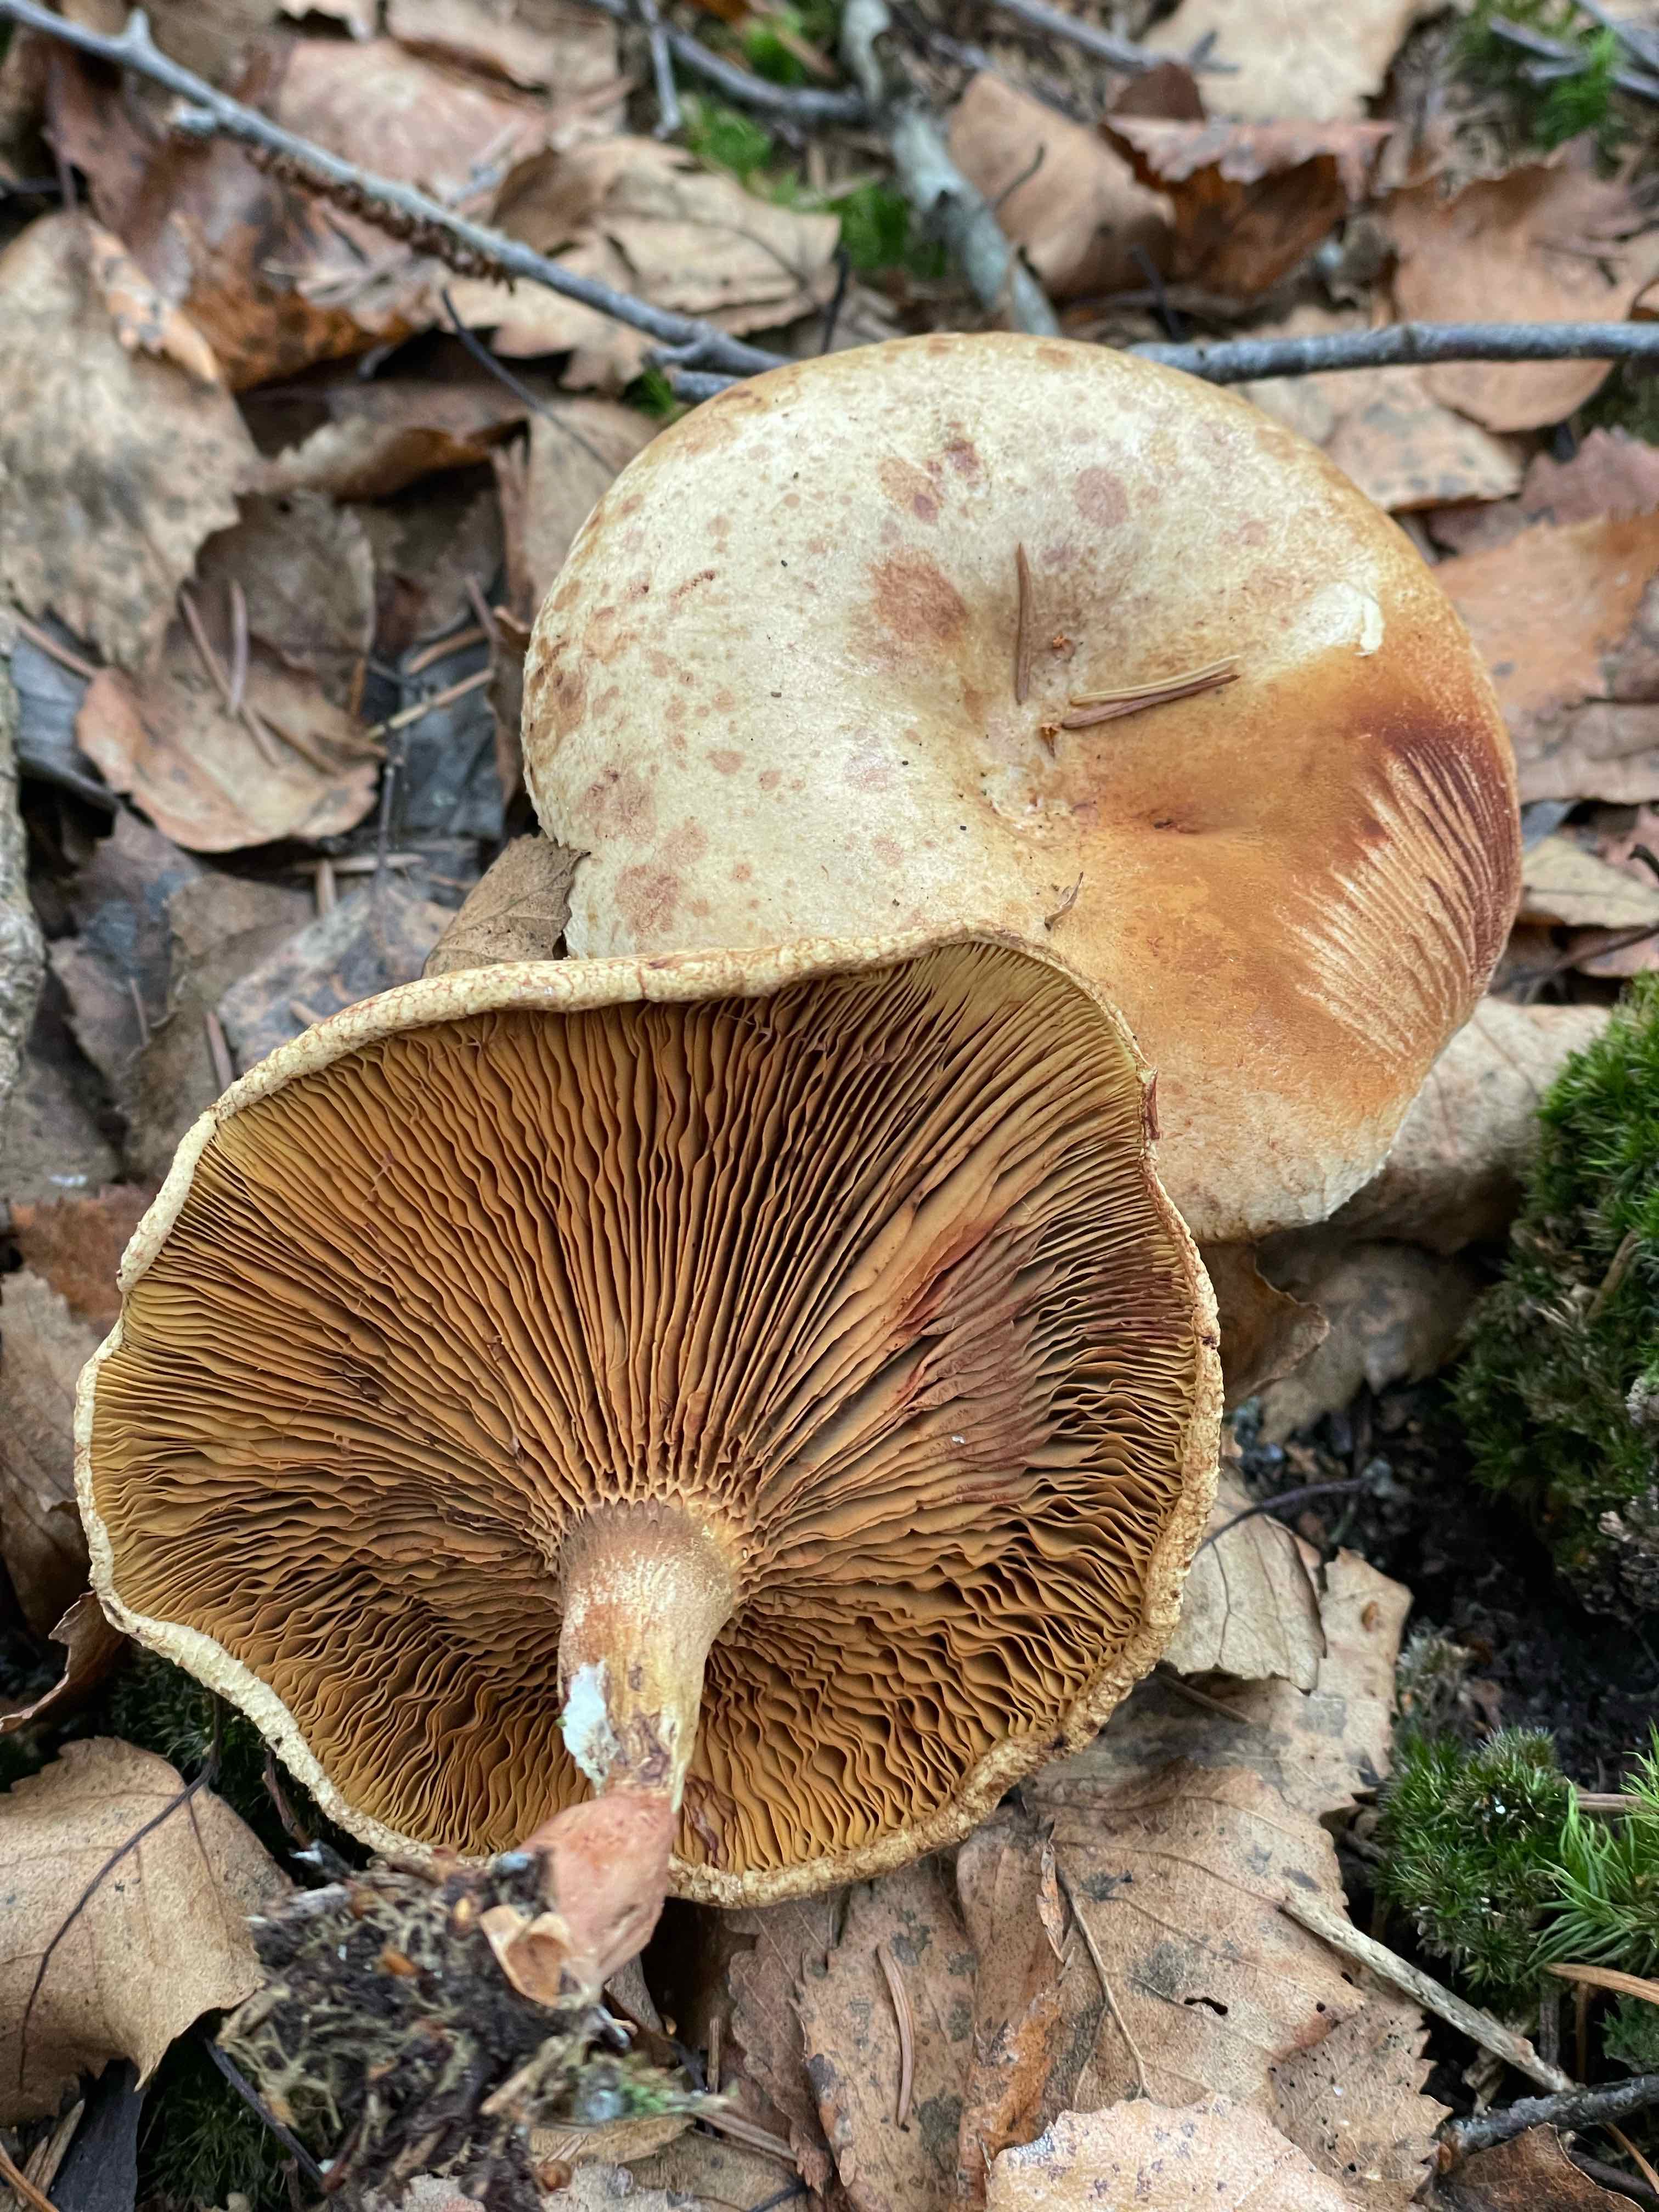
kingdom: Fungi
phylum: Basidiomycota
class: Agaricomycetes
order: Boletales
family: Paxillaceae
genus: Paxillus
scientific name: Paxillus involutus
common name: almindelig netbladhat
